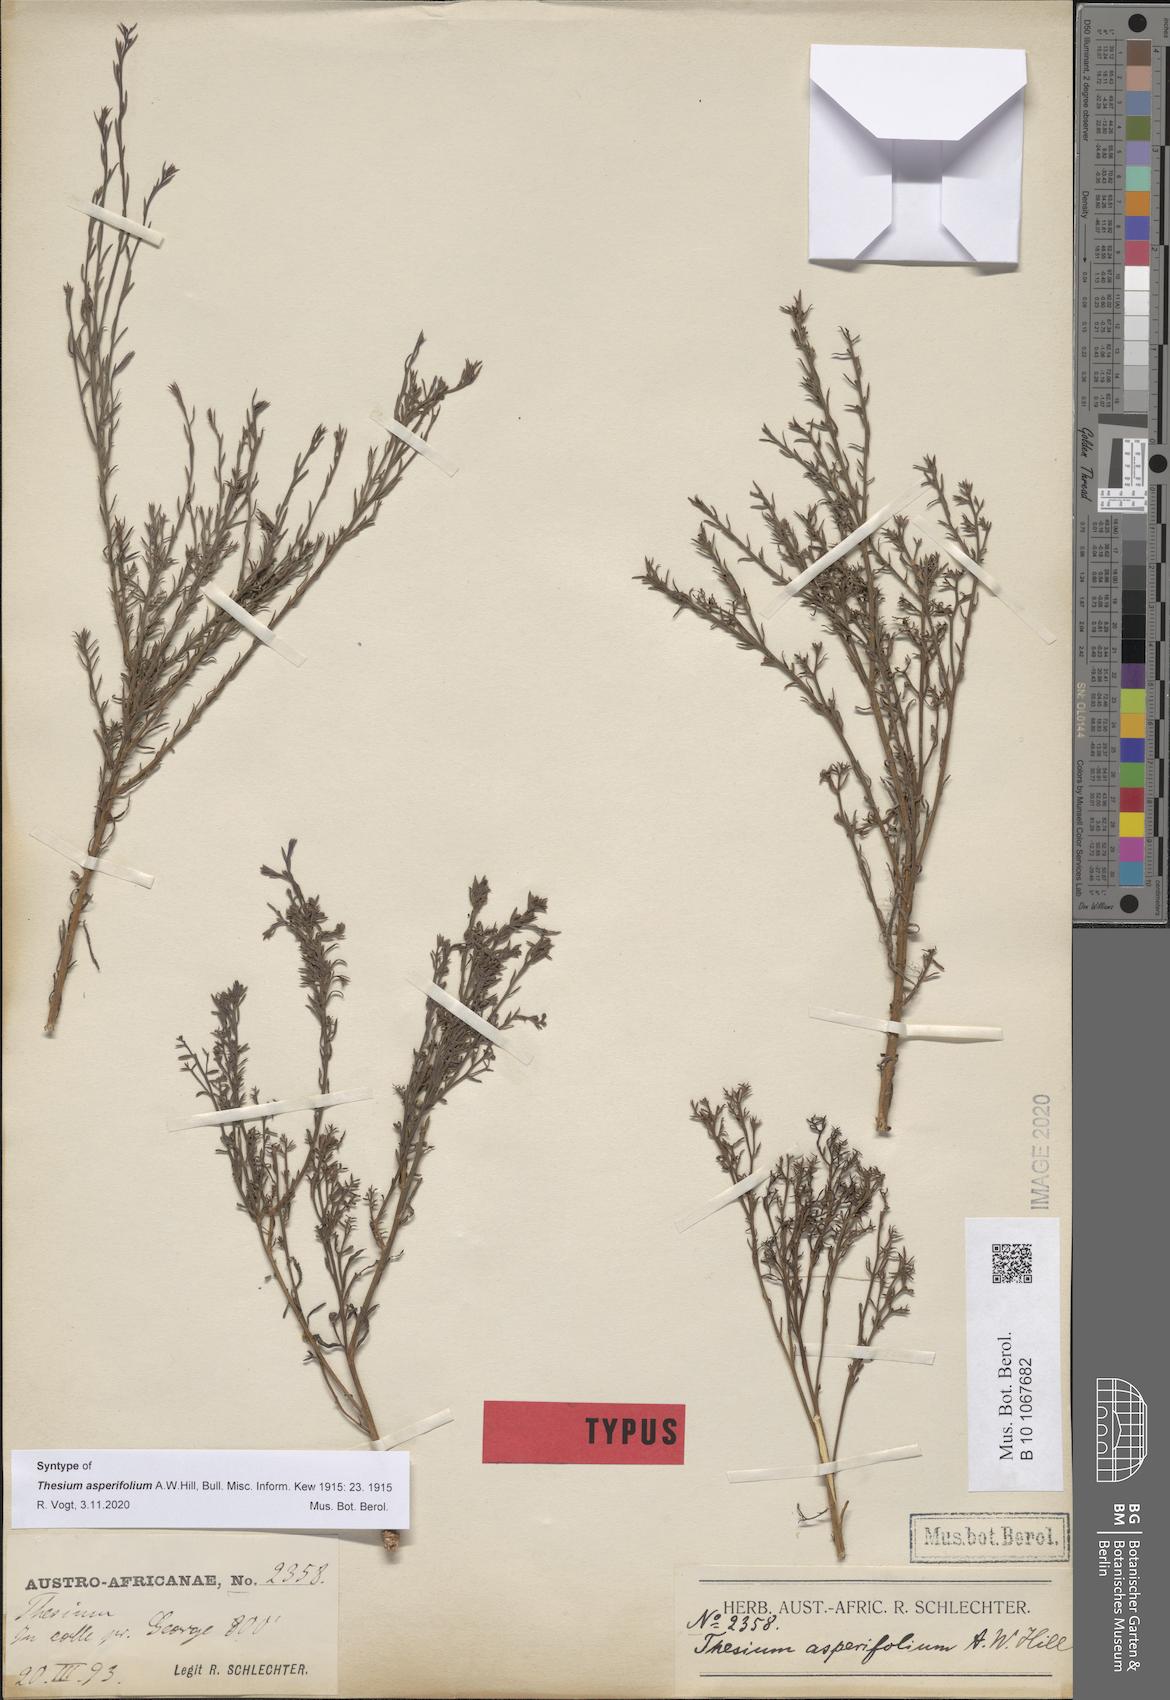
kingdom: Plantae
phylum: Tracheophyta
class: Magnoliopsida
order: Santalales
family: Thesiaceae
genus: Thesium
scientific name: Thesium asperifolium
